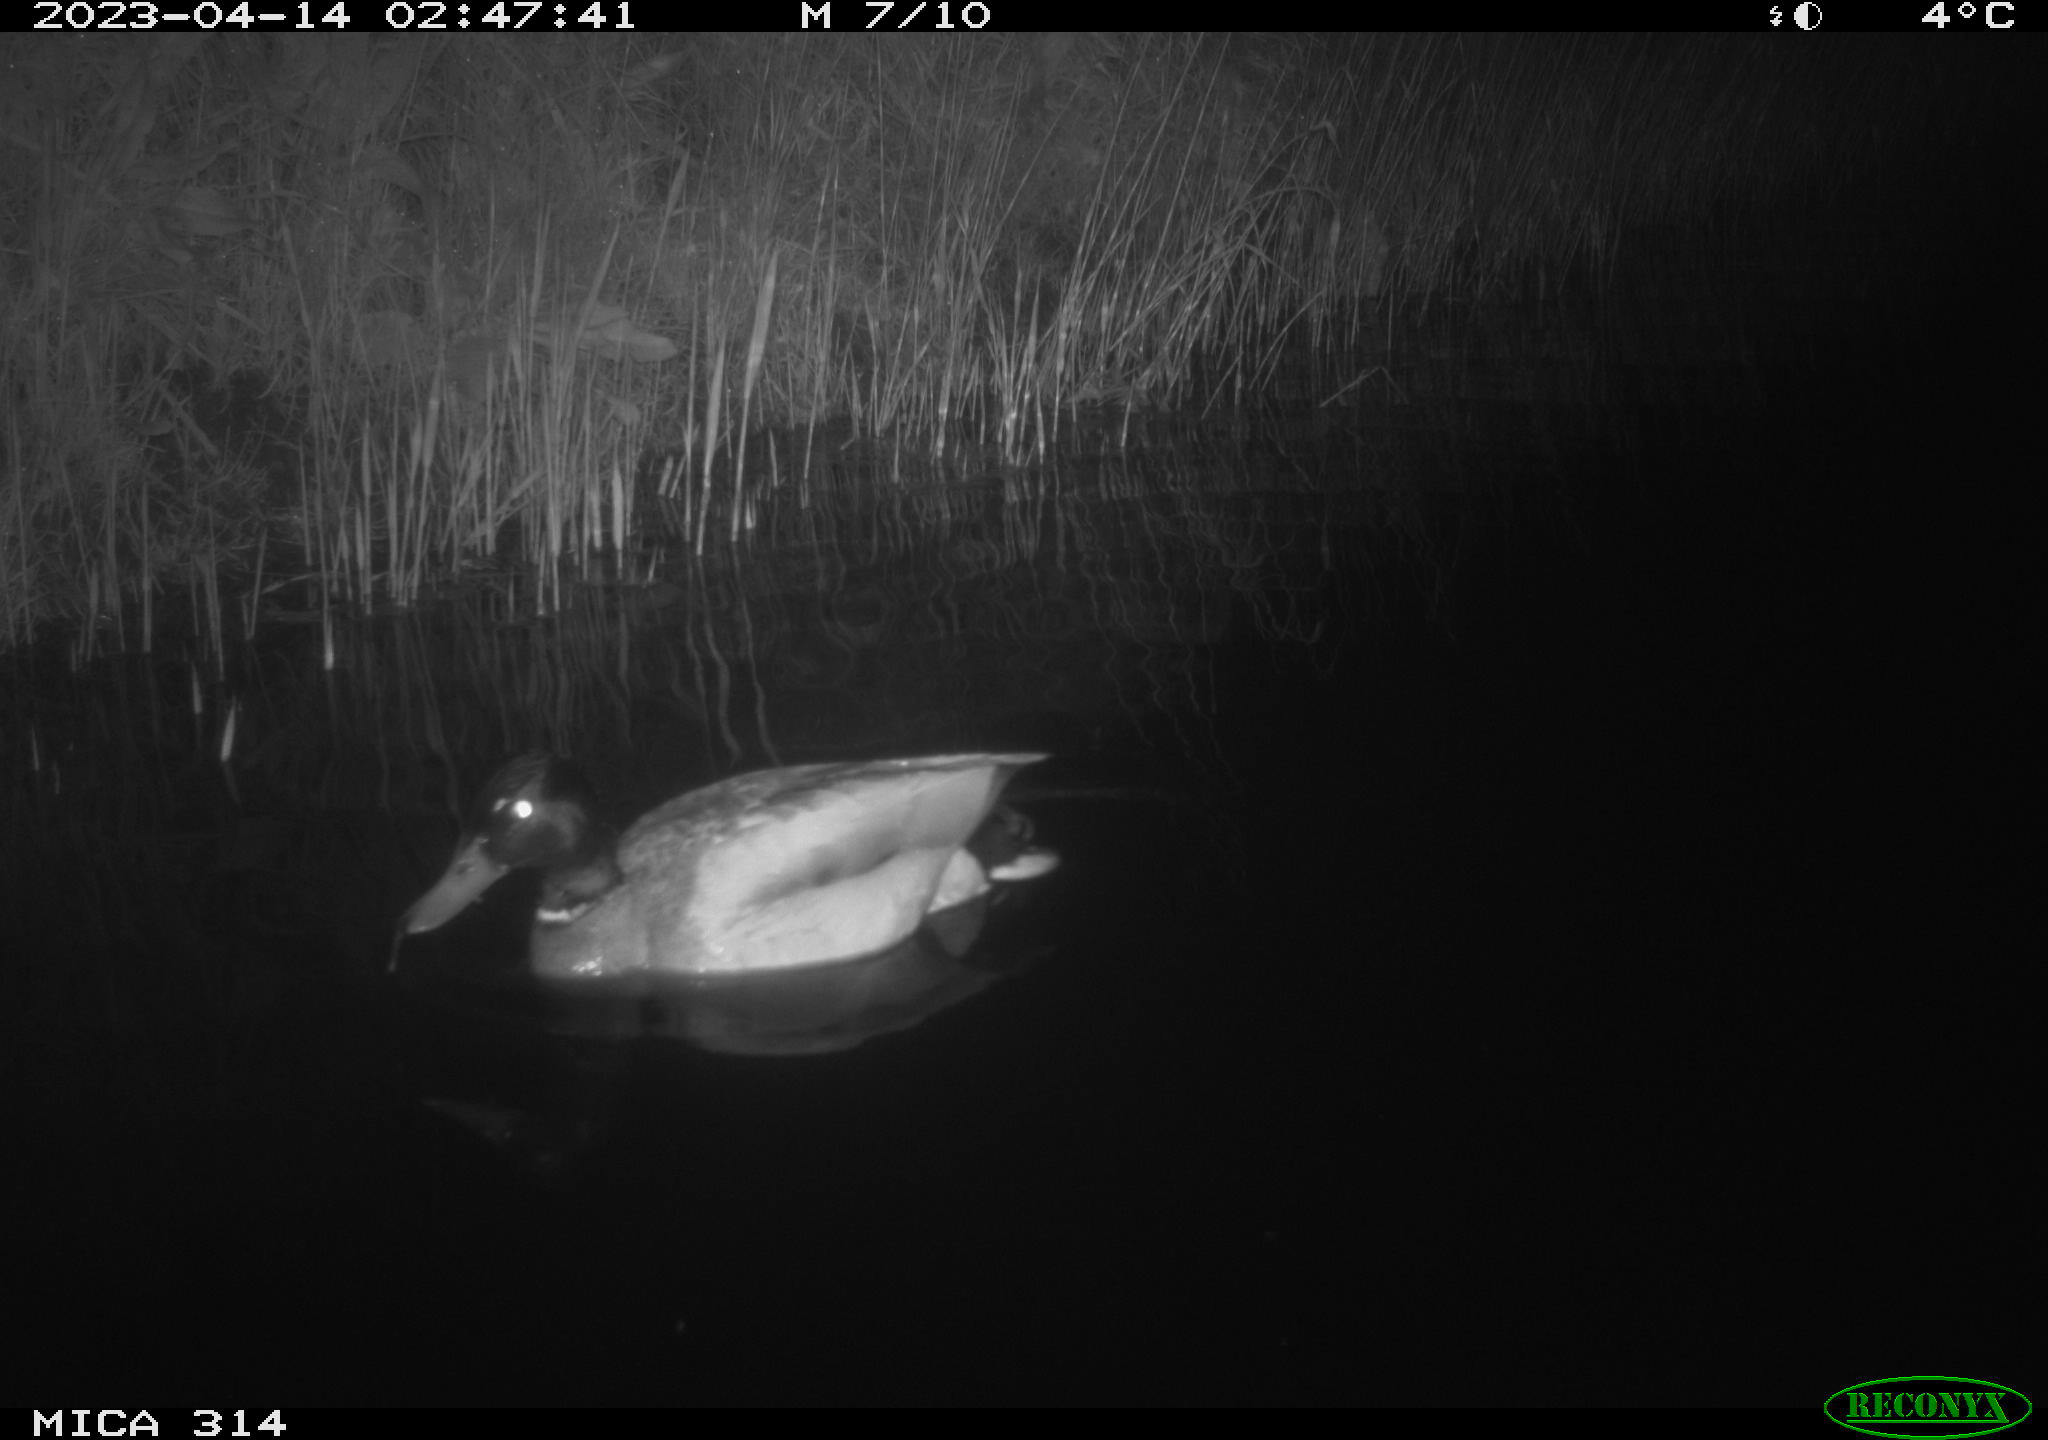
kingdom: Animalia
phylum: Chordata
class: Aves
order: Anseriformes
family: Anatidae
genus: Anas
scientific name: Anas
